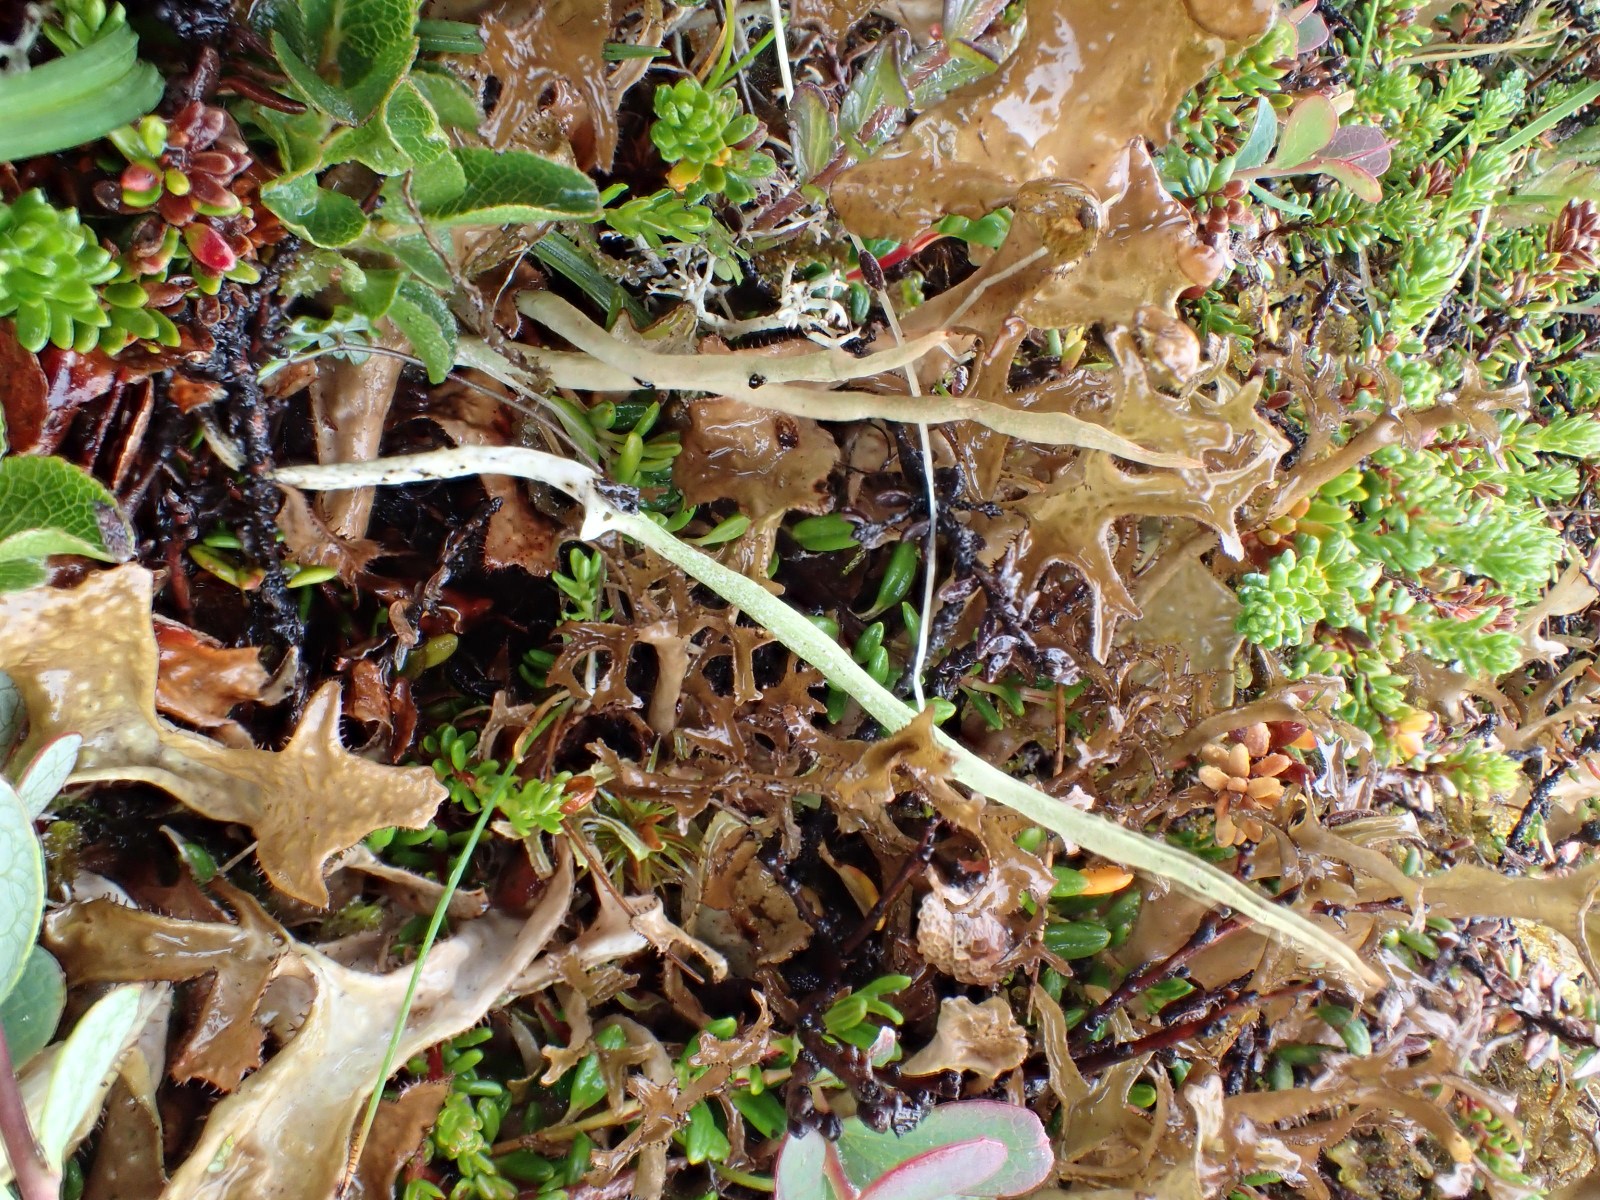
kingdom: Fungi
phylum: Ascomycota
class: Lecanoromycetes
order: Lecanorales
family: Cladoniaceae
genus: Cladonia
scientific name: Cladonia cornuta
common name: syl-bægerlav
